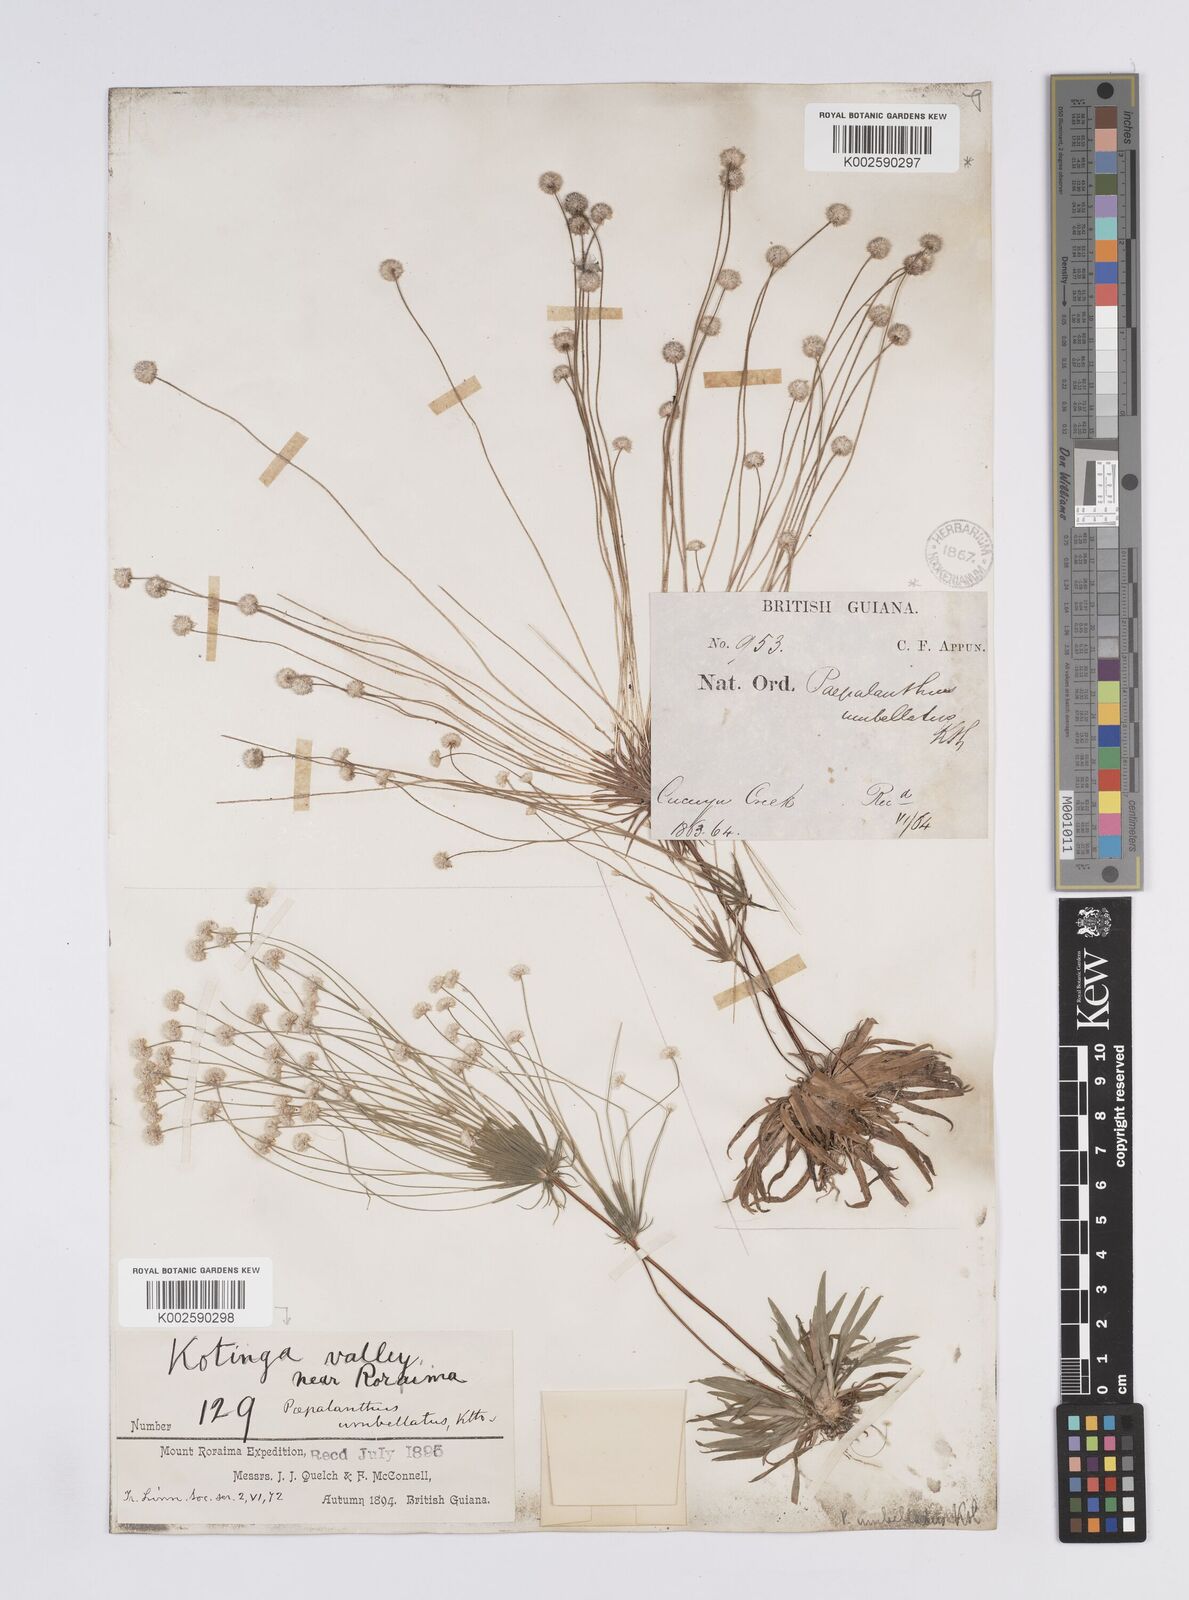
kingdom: Plantae
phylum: Tracheophyta
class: Liliopsida
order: Poales
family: Eriocaulaceae
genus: Syngonanthus
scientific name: Syngonanthus umbellatus
